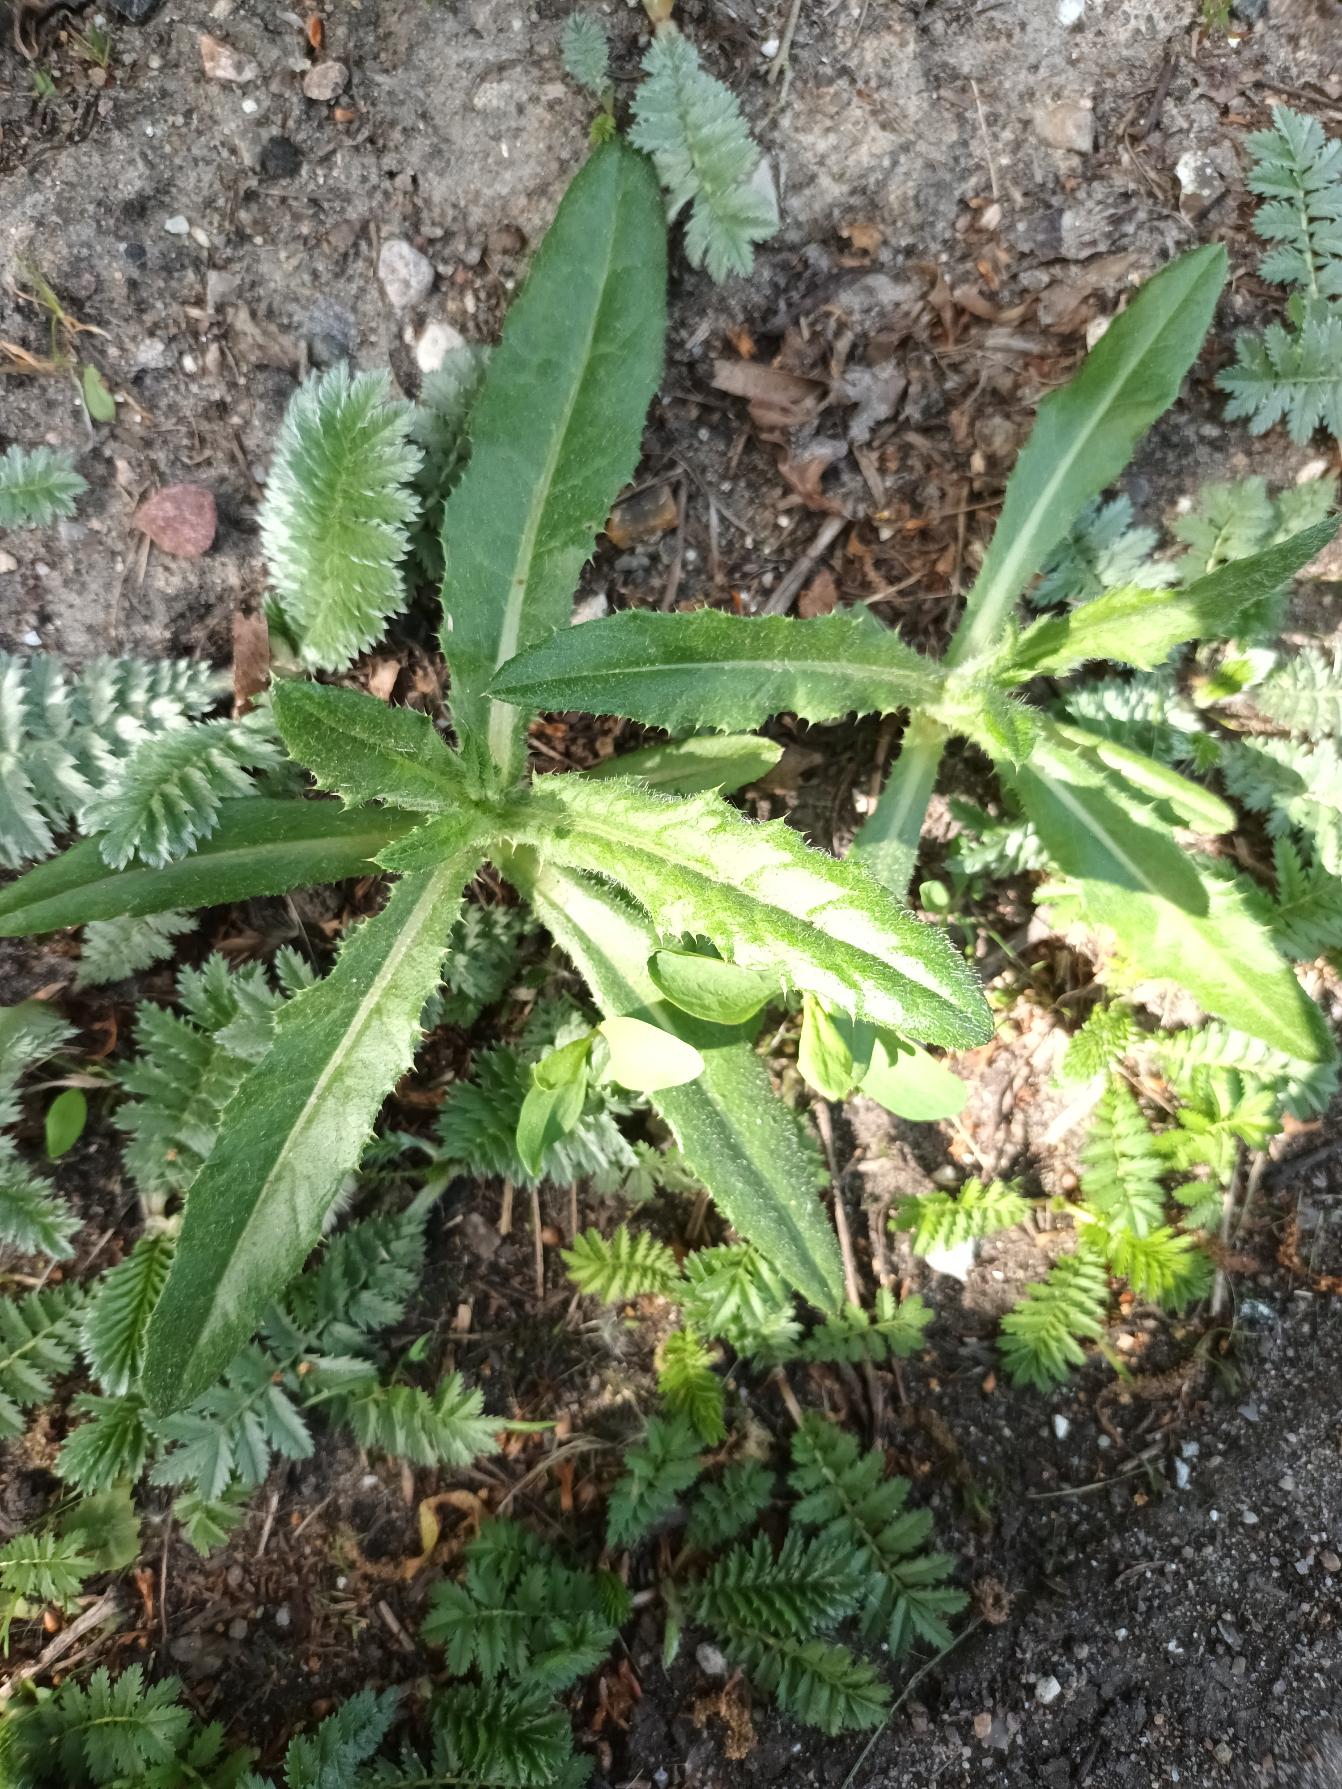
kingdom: Plantae
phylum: Tracheophyta
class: Magnoliopsida
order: Asterales
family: Asteraceae
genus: Cirsium
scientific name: Cirsium arvense
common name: Ager-tidsel
